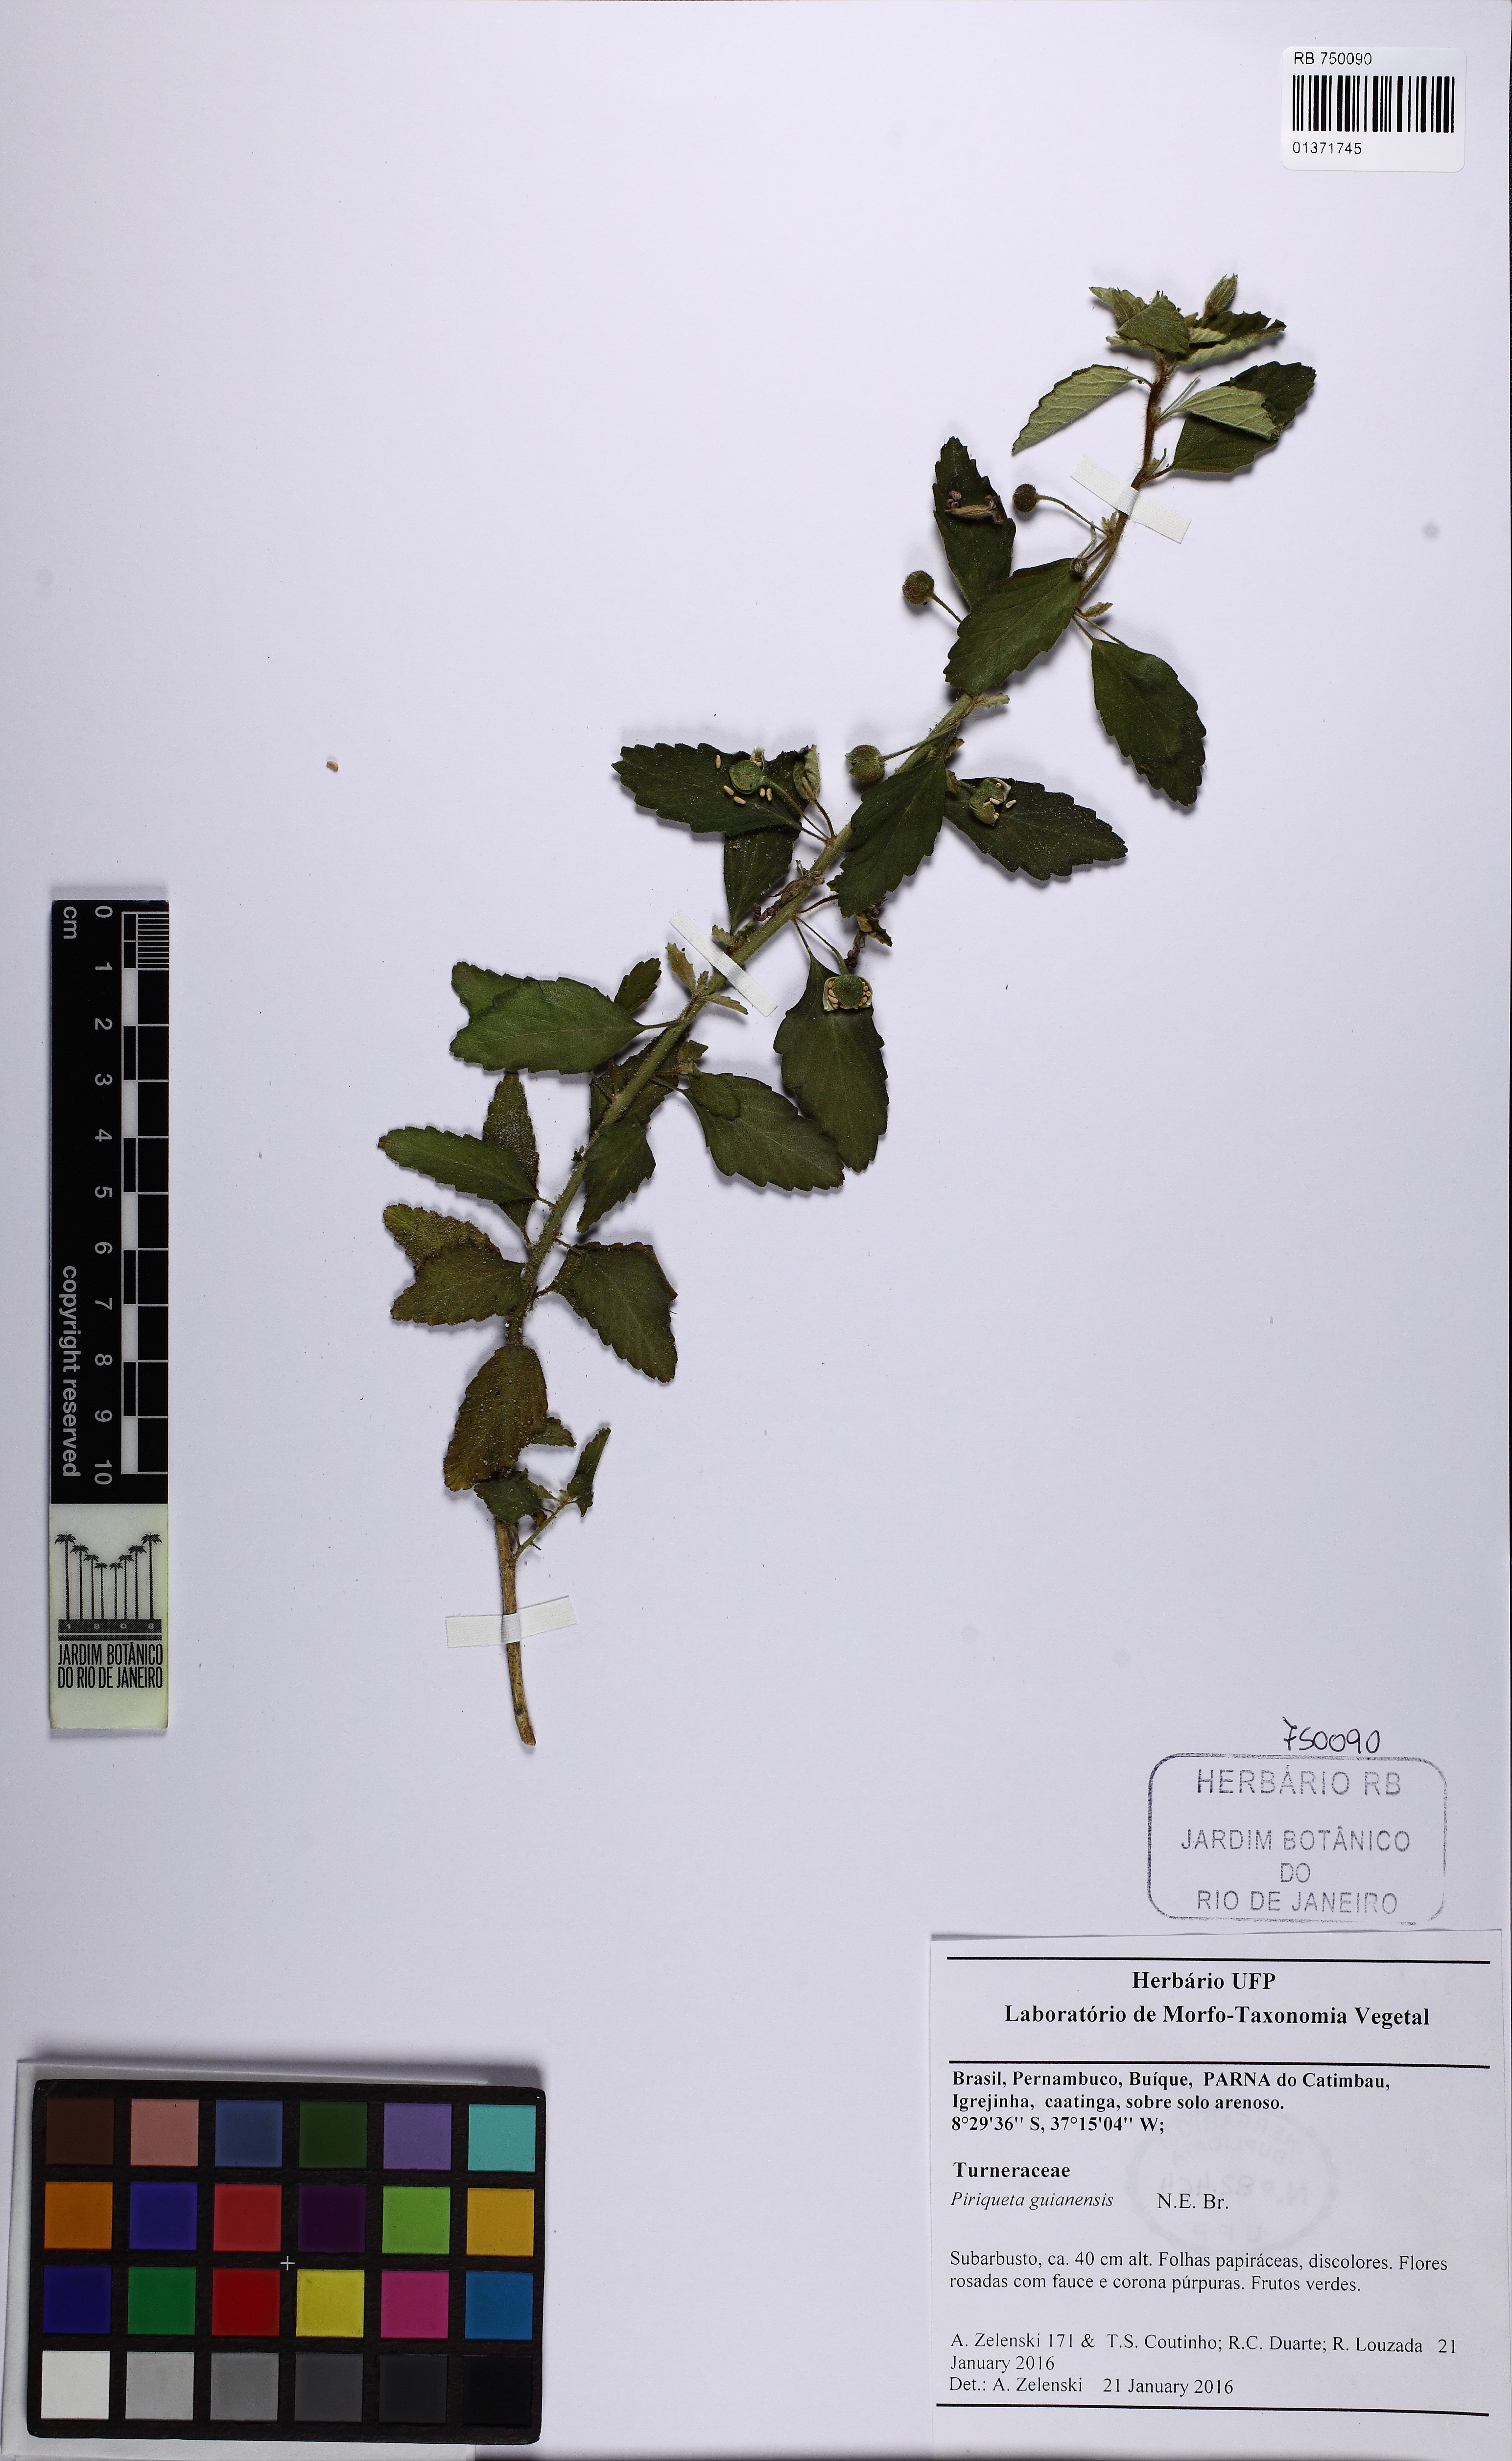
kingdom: Plantae
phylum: Tracheophyta
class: Magnoliopsida
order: Malpighiales
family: Turneraceae
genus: Piriqueta
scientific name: Piriqueta guianensis
